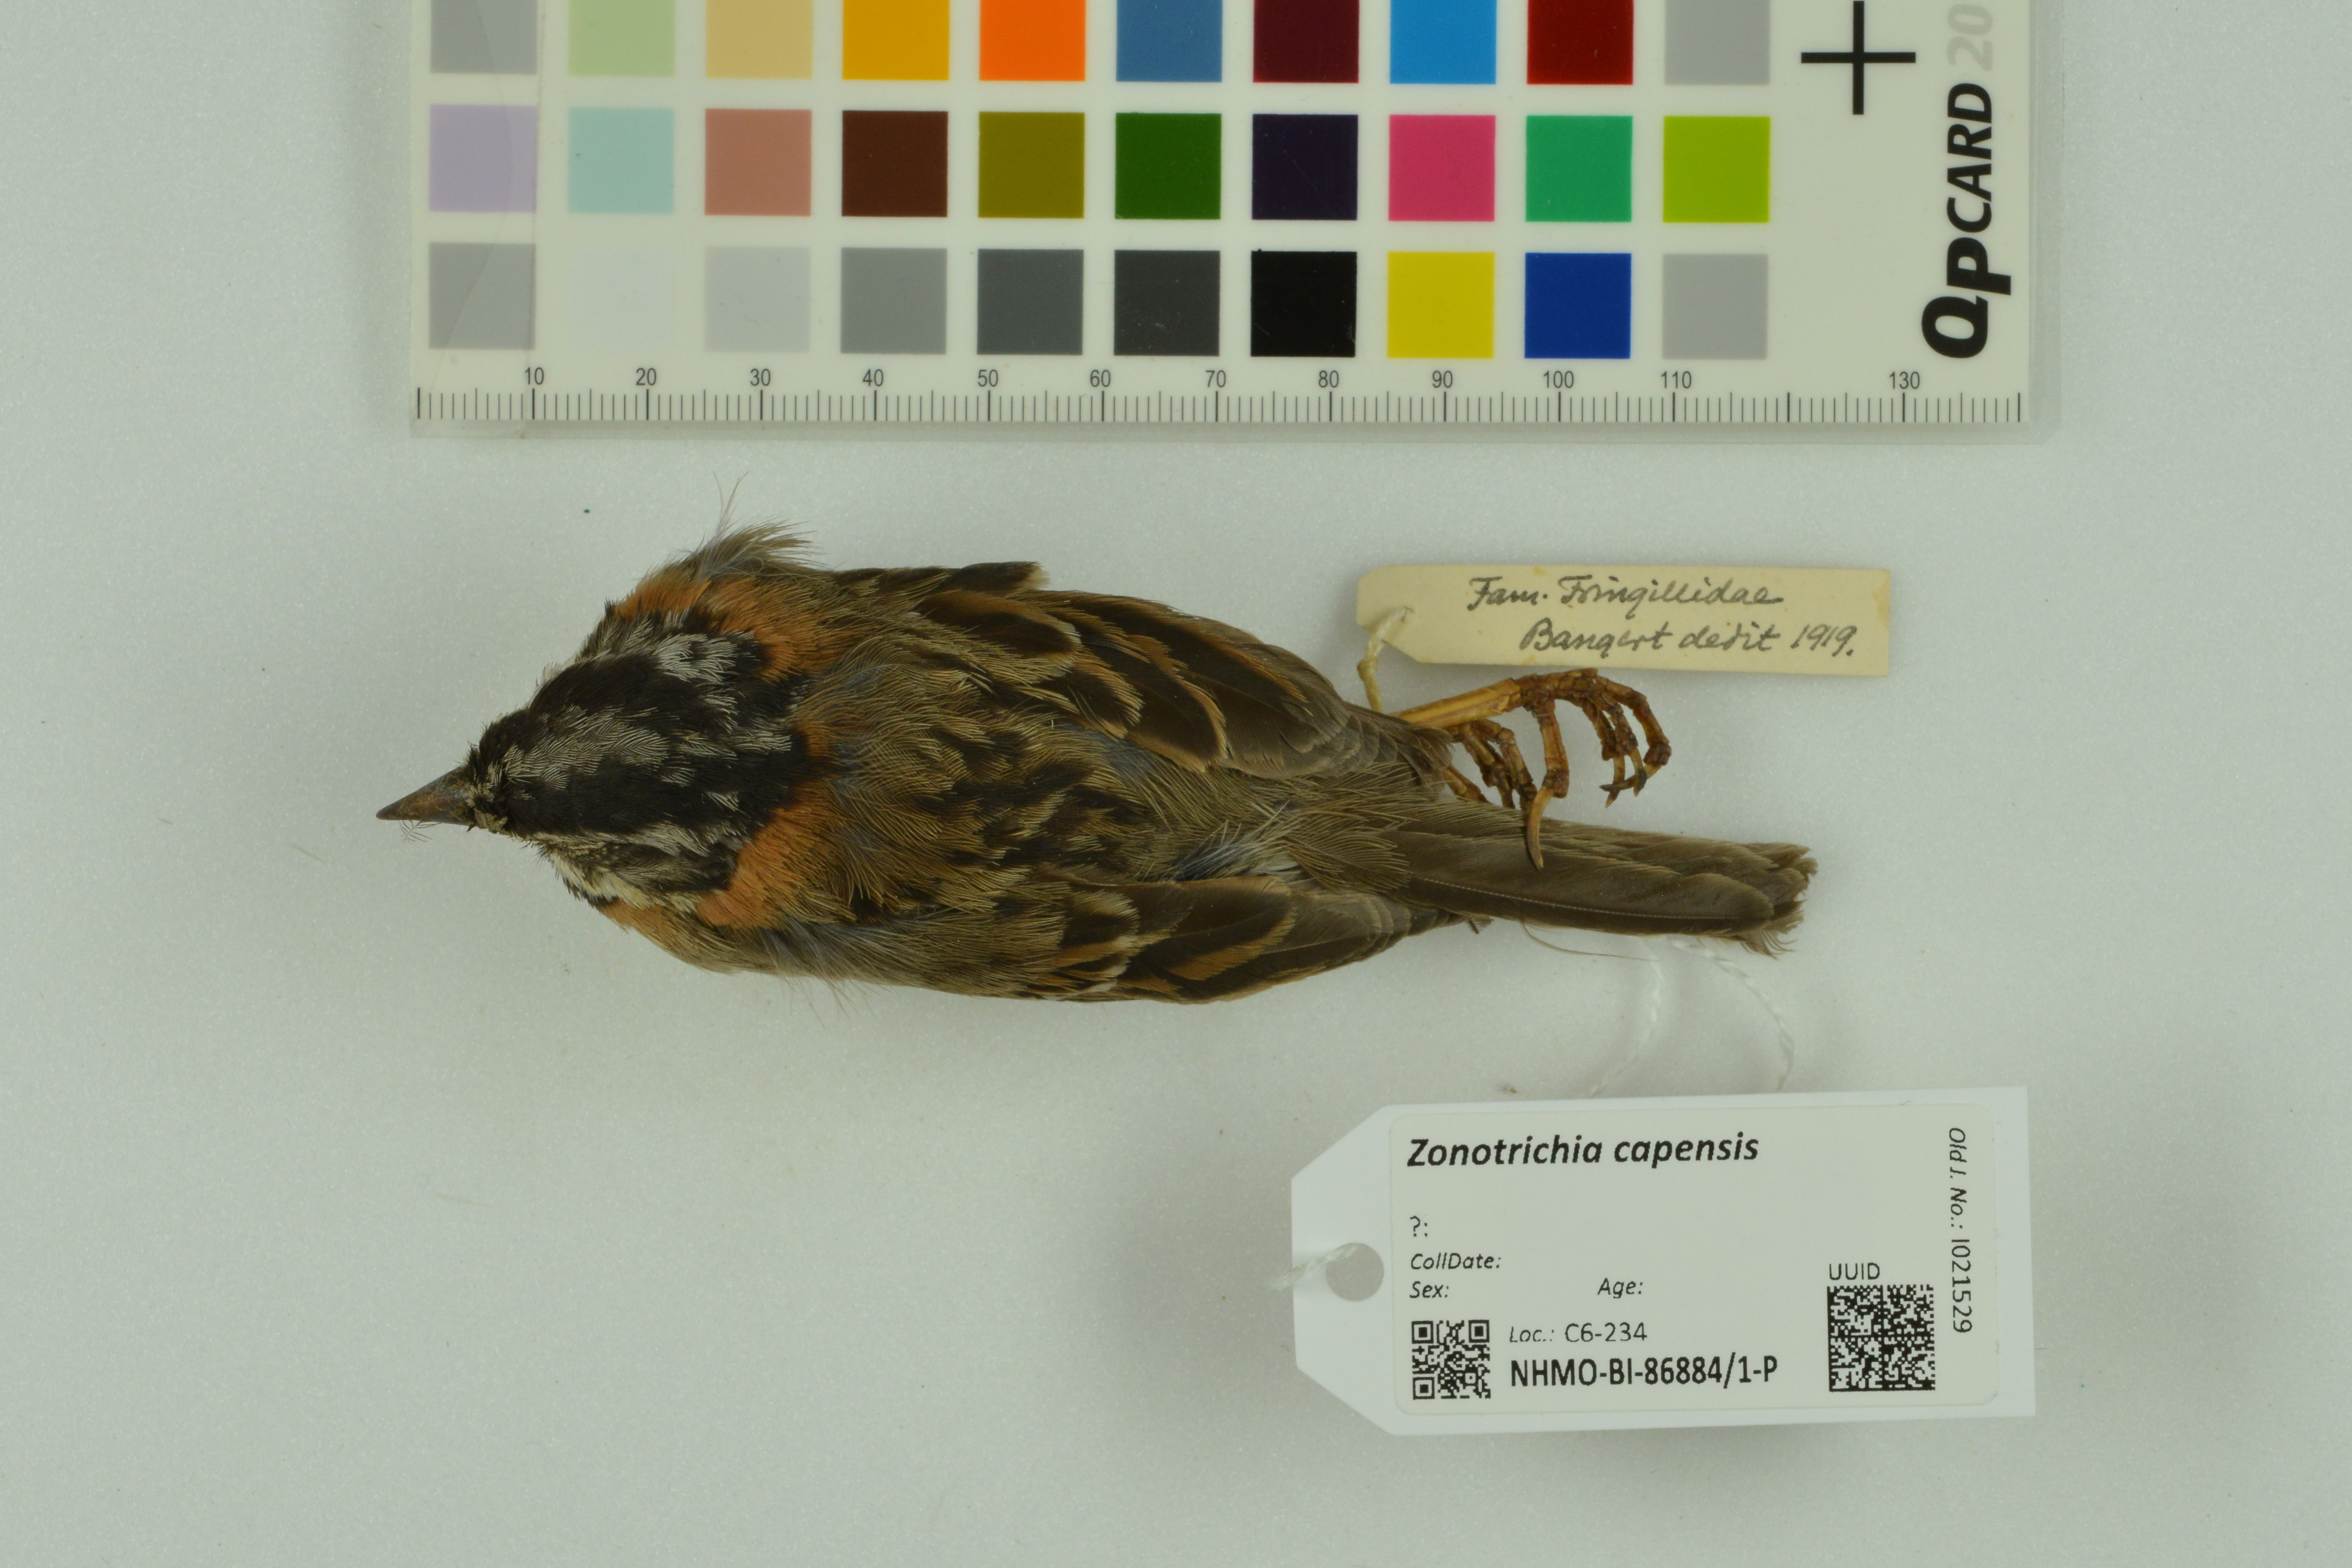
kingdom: Animalia
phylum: Chordata
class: Aves
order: Passeriformes
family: Passerellidae
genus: Zonotrichia
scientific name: Zonotrichia capensis
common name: Rufous-collared sparrow
